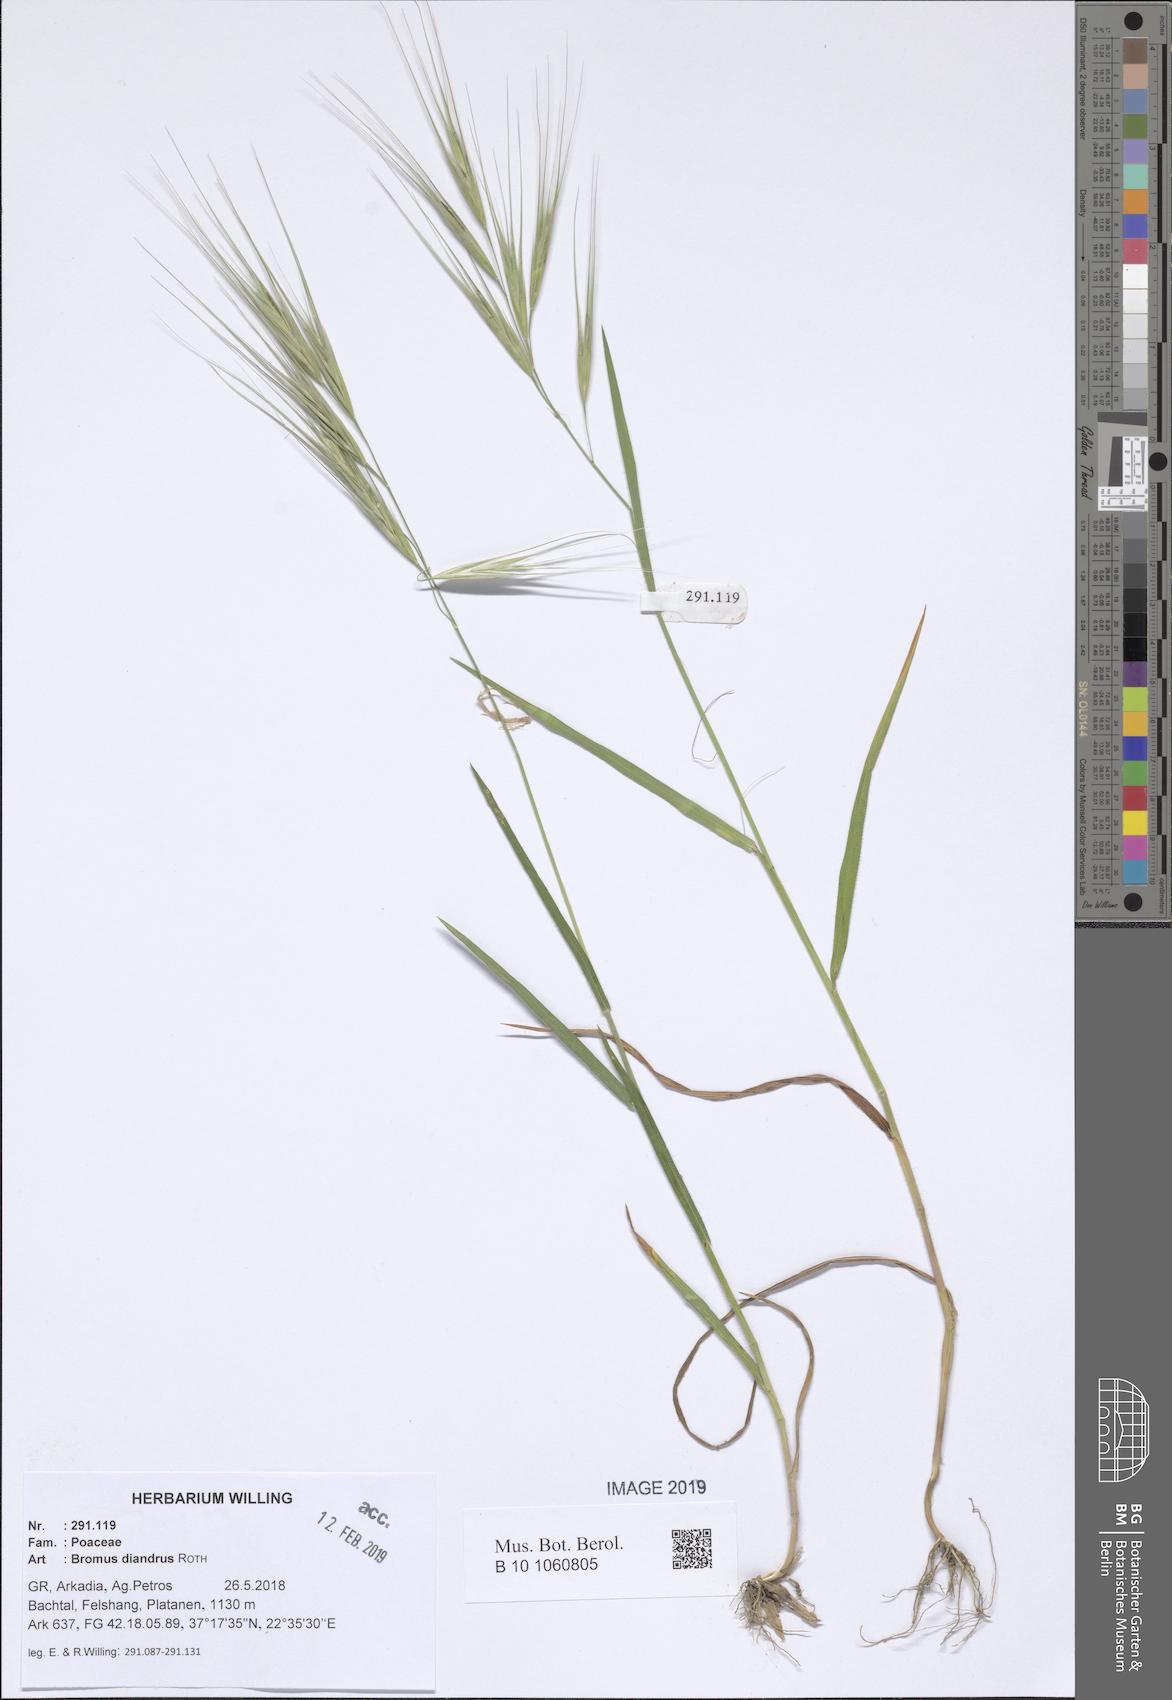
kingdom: Plantae
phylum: Tracheophyta
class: Liliopsida
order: Poales
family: Poaceae
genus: Bromus
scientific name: Bromus diandrus
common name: Ripgut brome
